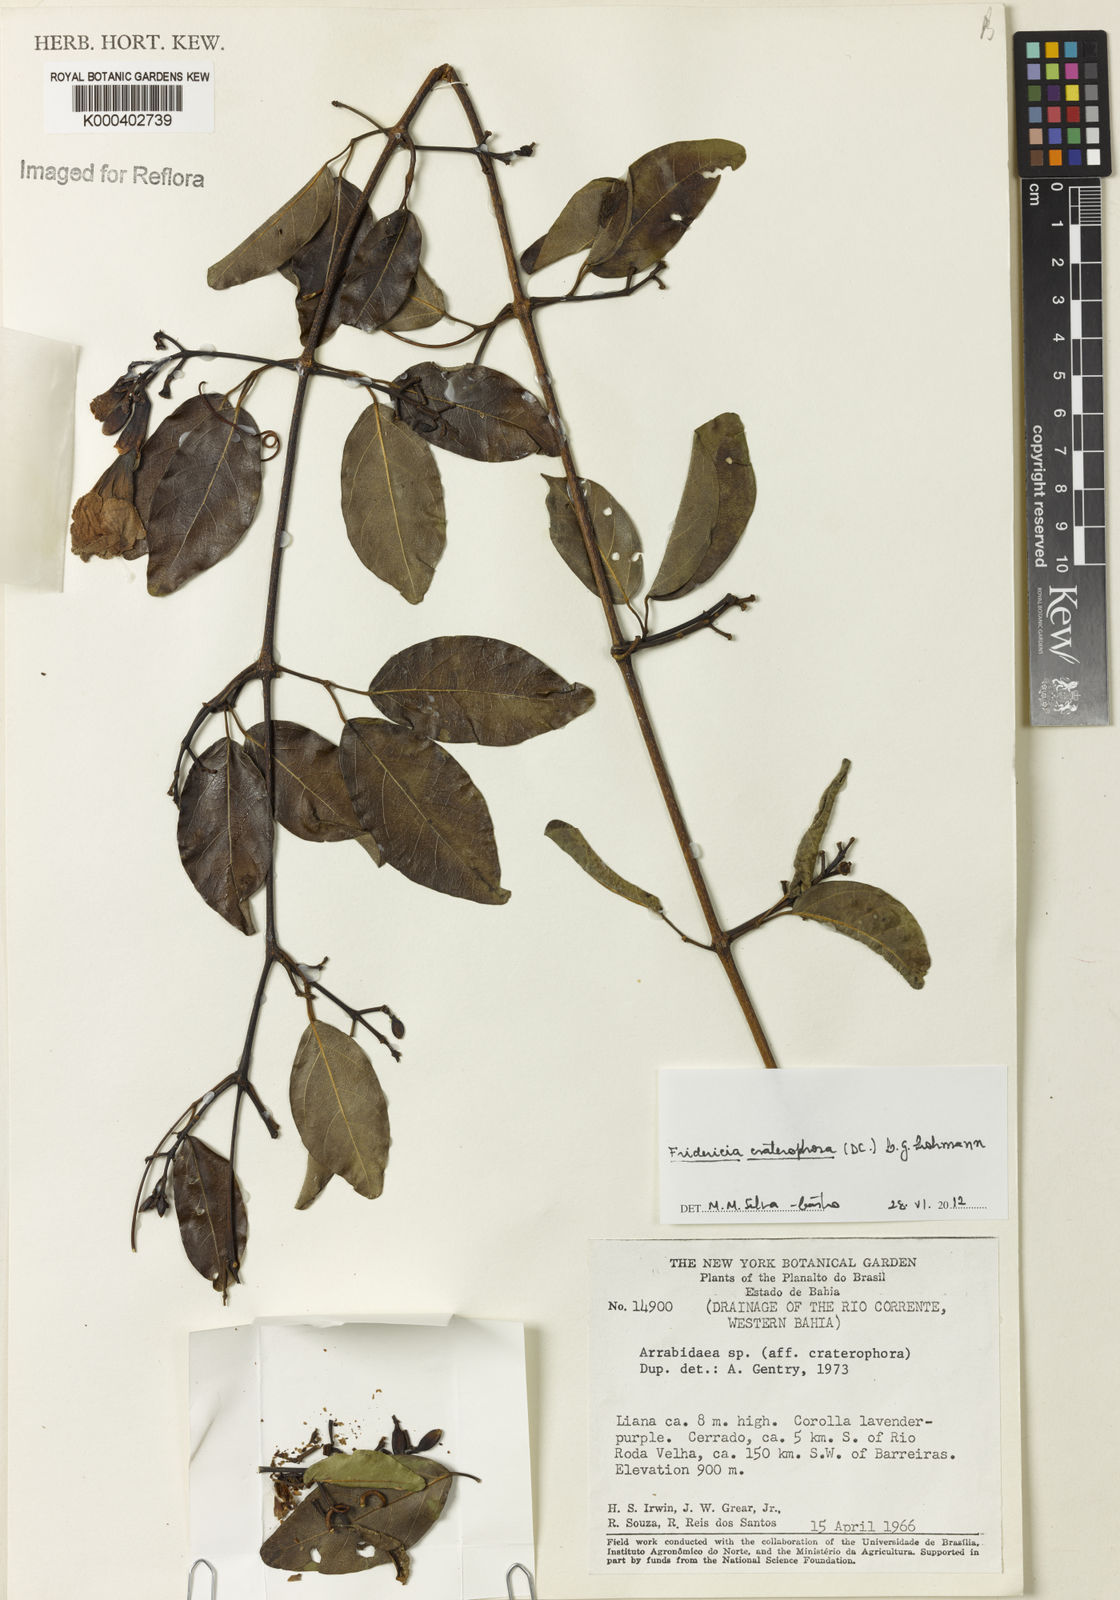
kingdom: Plantae
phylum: Tracheophyta
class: Magnoliopsida
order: Lamiales
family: Bignoniaceae
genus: Fridericia
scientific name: Fridericia craterophora
